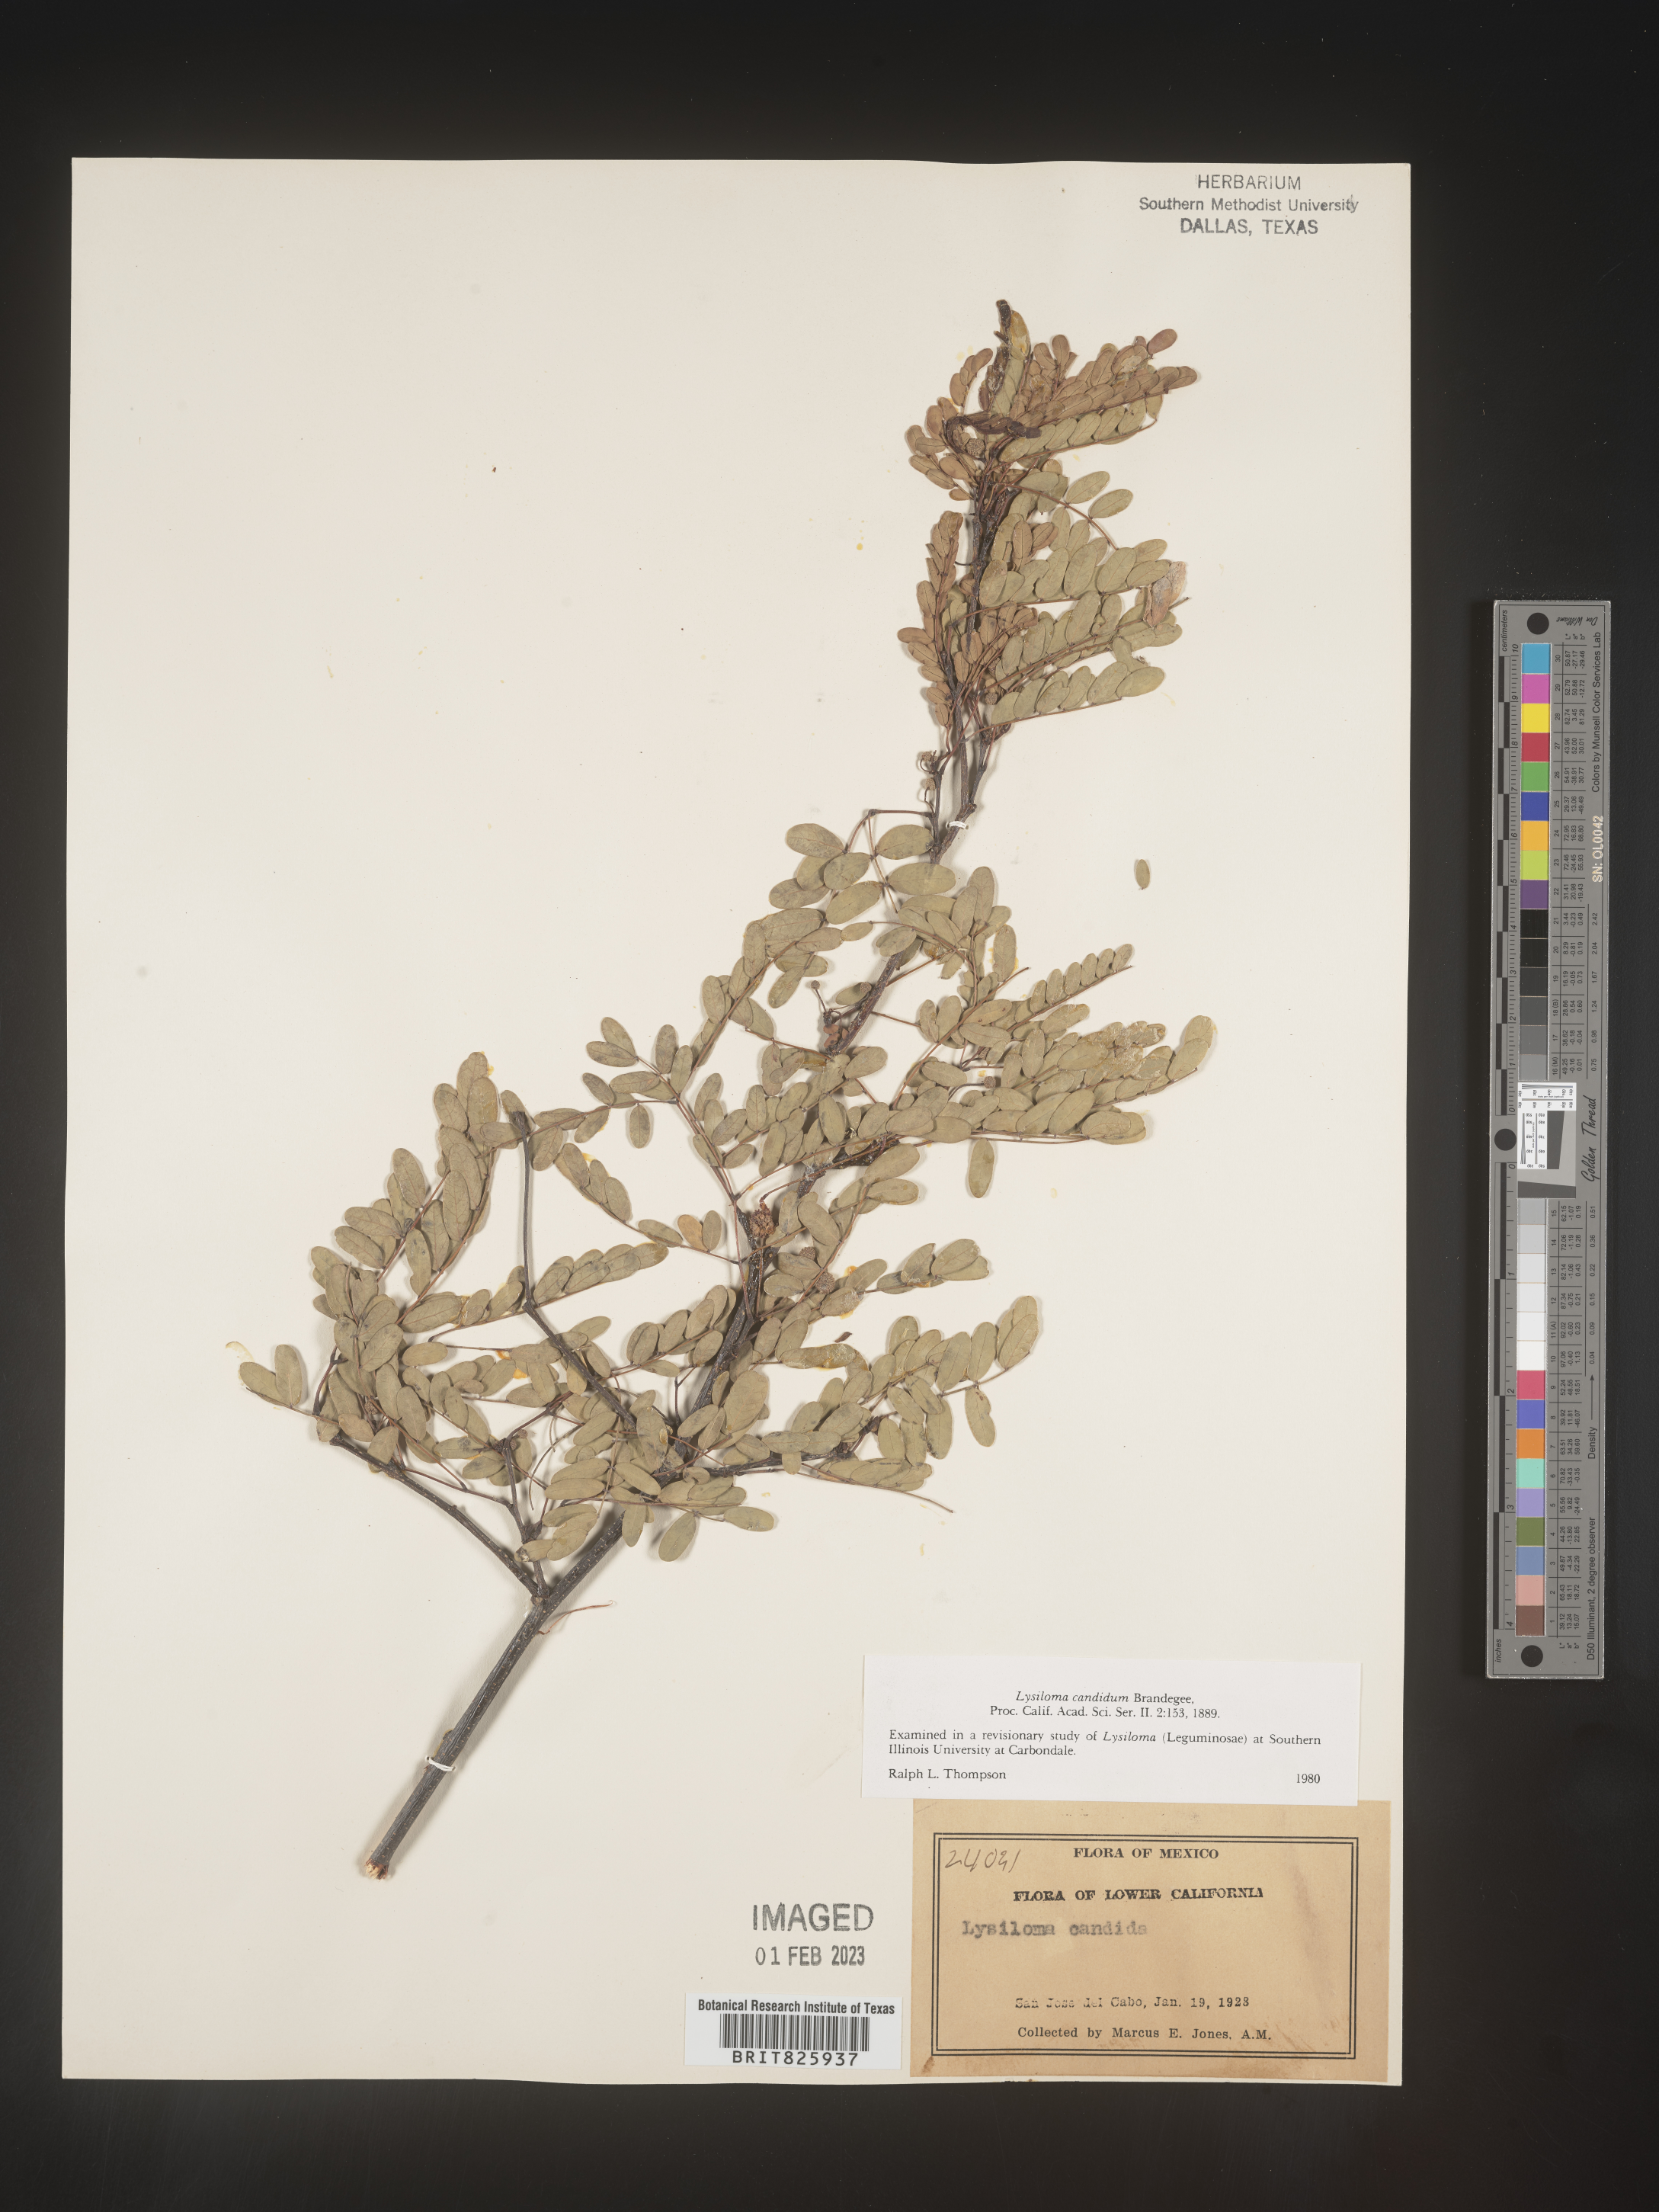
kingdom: Plantae
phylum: Tracheophyta
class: Magnoliopsida
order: Fabales
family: Fabaceae
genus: Lysiloma
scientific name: Lysiloma
